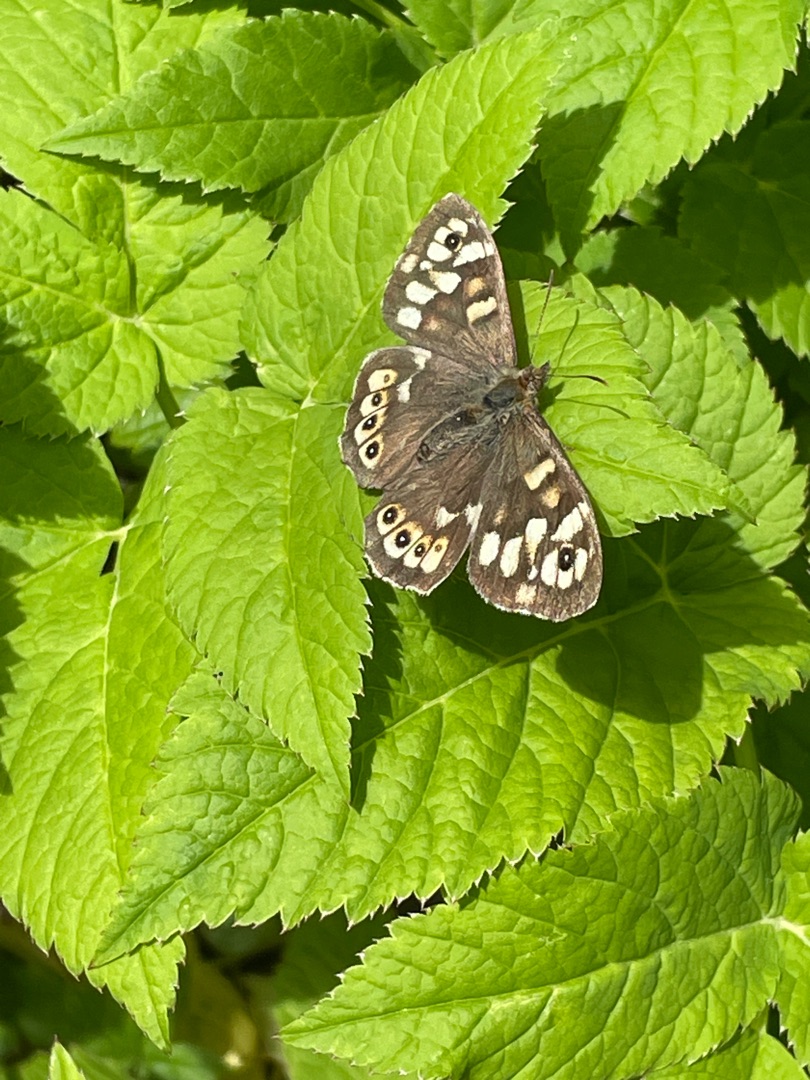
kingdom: Animalia
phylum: Arthropoda
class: Insecta
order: Lepidoptera
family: Nymphalidae
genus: Pararge
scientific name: Pararge aegeria
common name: Skovrandøje
